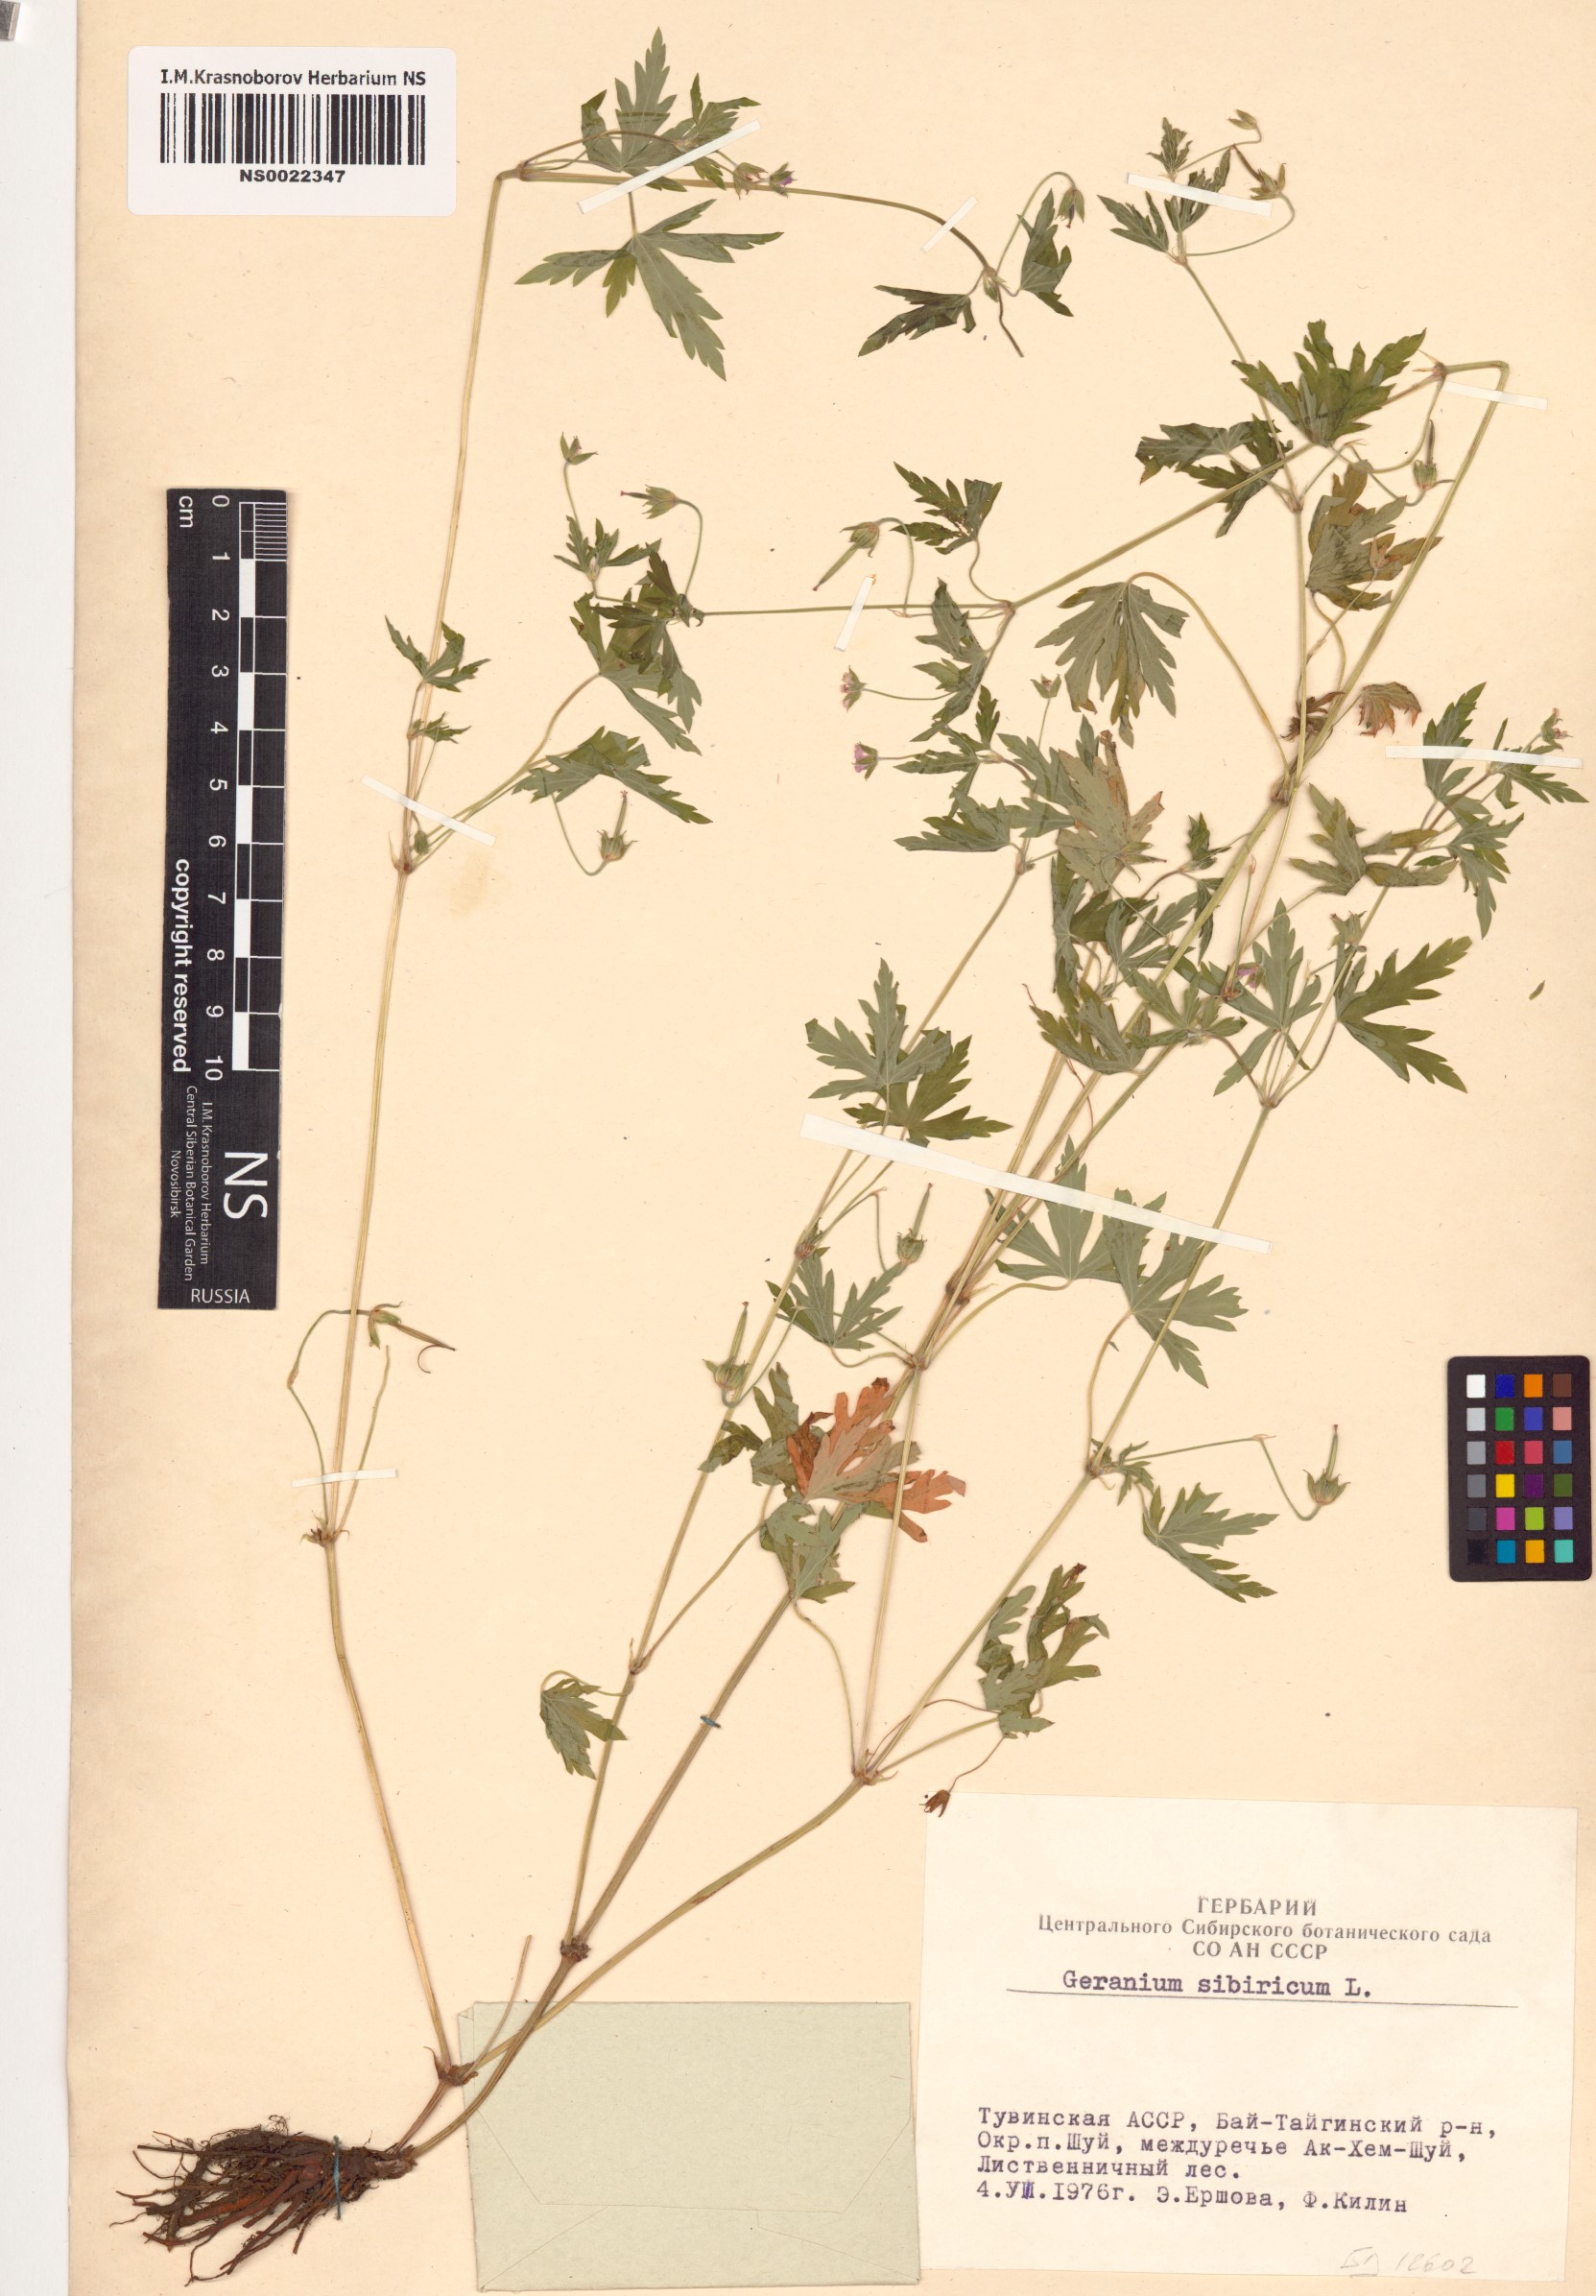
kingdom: Plantae
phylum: Tracheophyta
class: Magnoliopsida
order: Geraniales
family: Geraniaceae
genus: Geranium
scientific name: Geranium sibiricum
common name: Siberian crane's-bill
